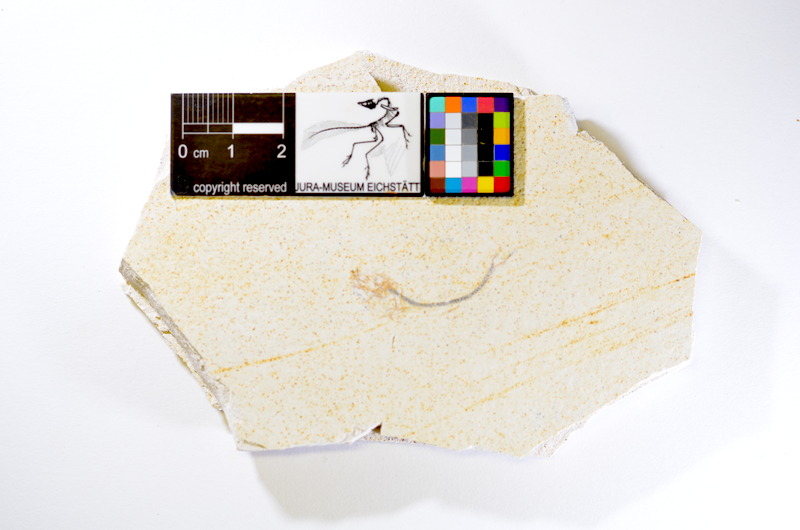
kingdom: Animalia
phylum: Chordata
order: Salmoniformes
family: Orthogonikleithridae
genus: Orthogonikleithrus
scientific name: Orthogonikleithrus hoelli
